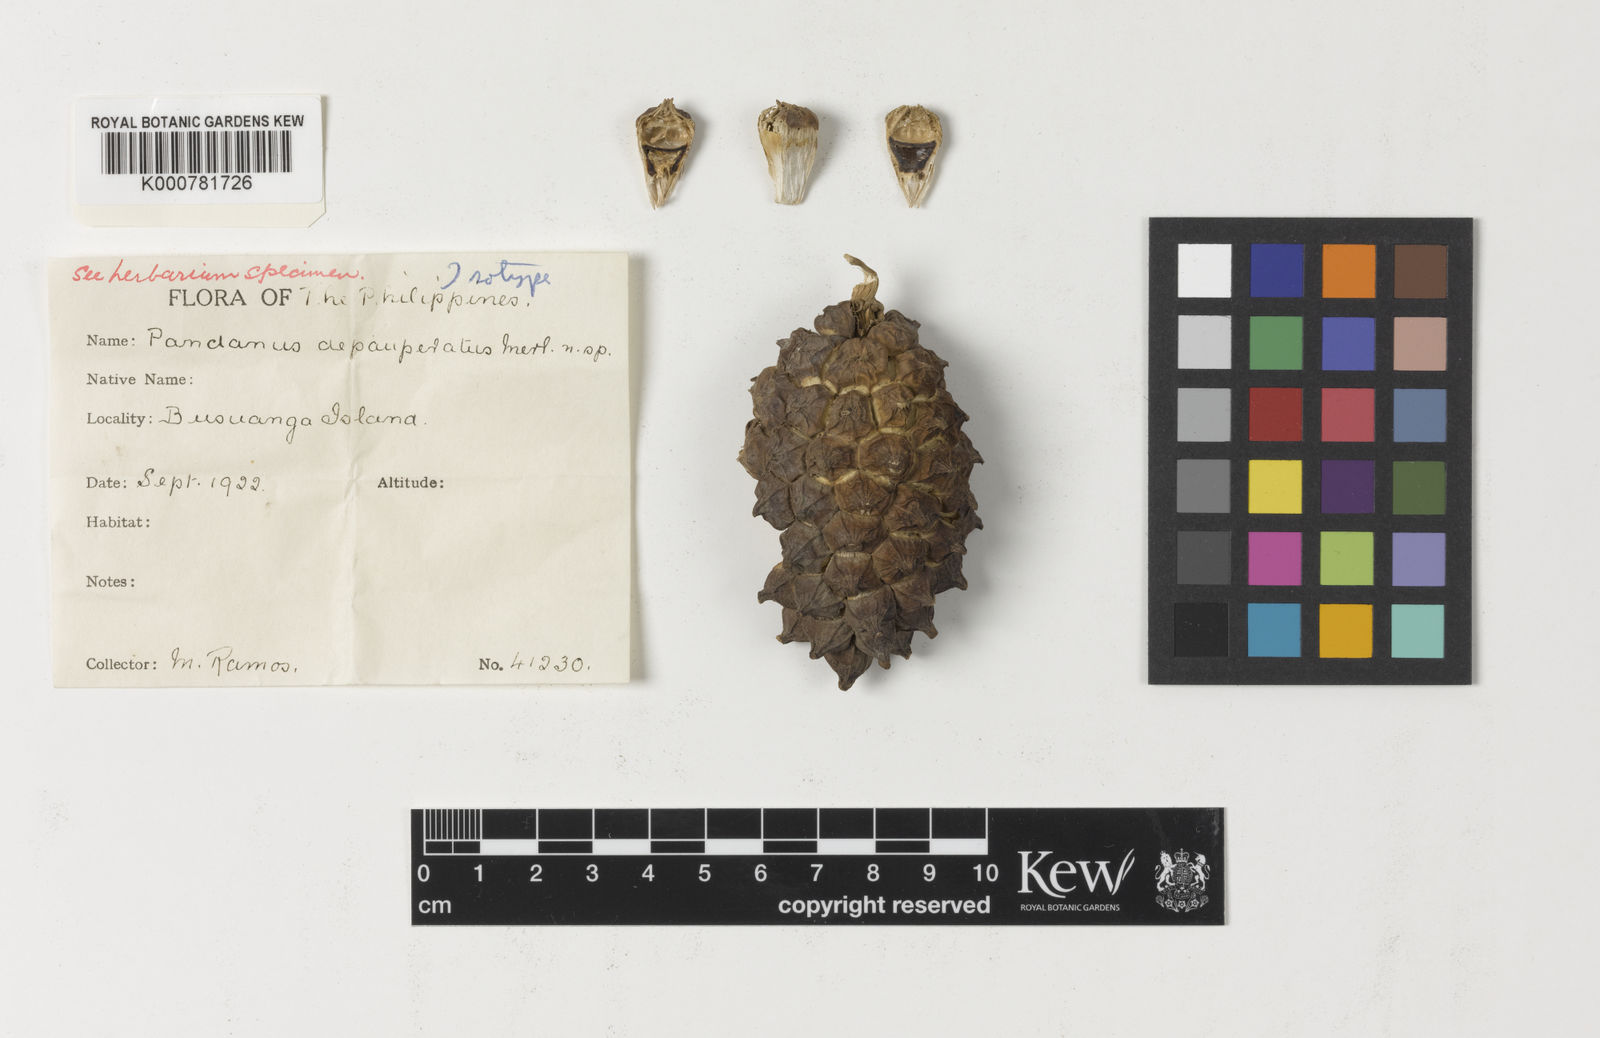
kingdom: Plantae
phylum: Tracheophyta
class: Liliopsida
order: Pandanales
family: Pandanaceae
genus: Pandanus
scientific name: Pandanus depauperatus
